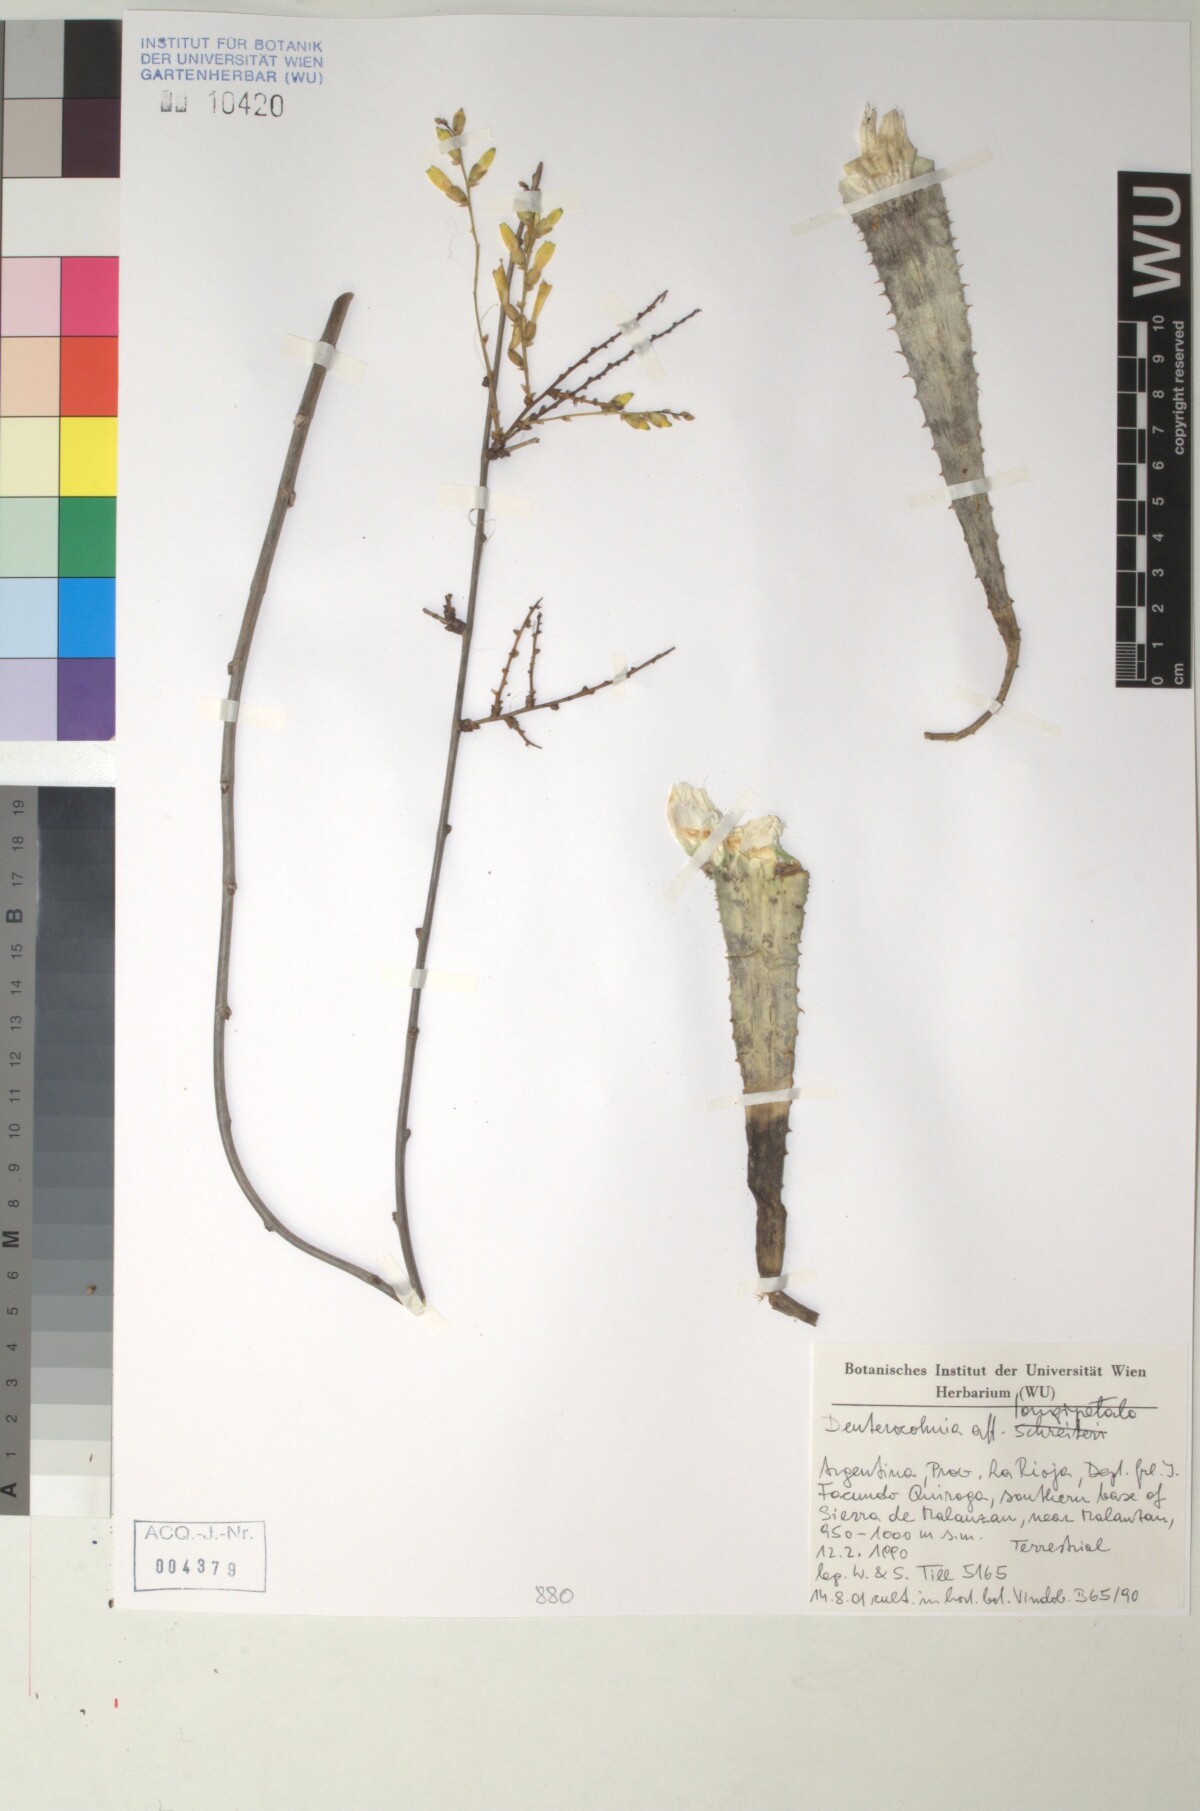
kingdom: Plantae
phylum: Tracheophyta
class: Liliopsida
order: Poales
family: Bromeliaceae
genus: Deuterocohnia
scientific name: Deuterocohnia longipetala
